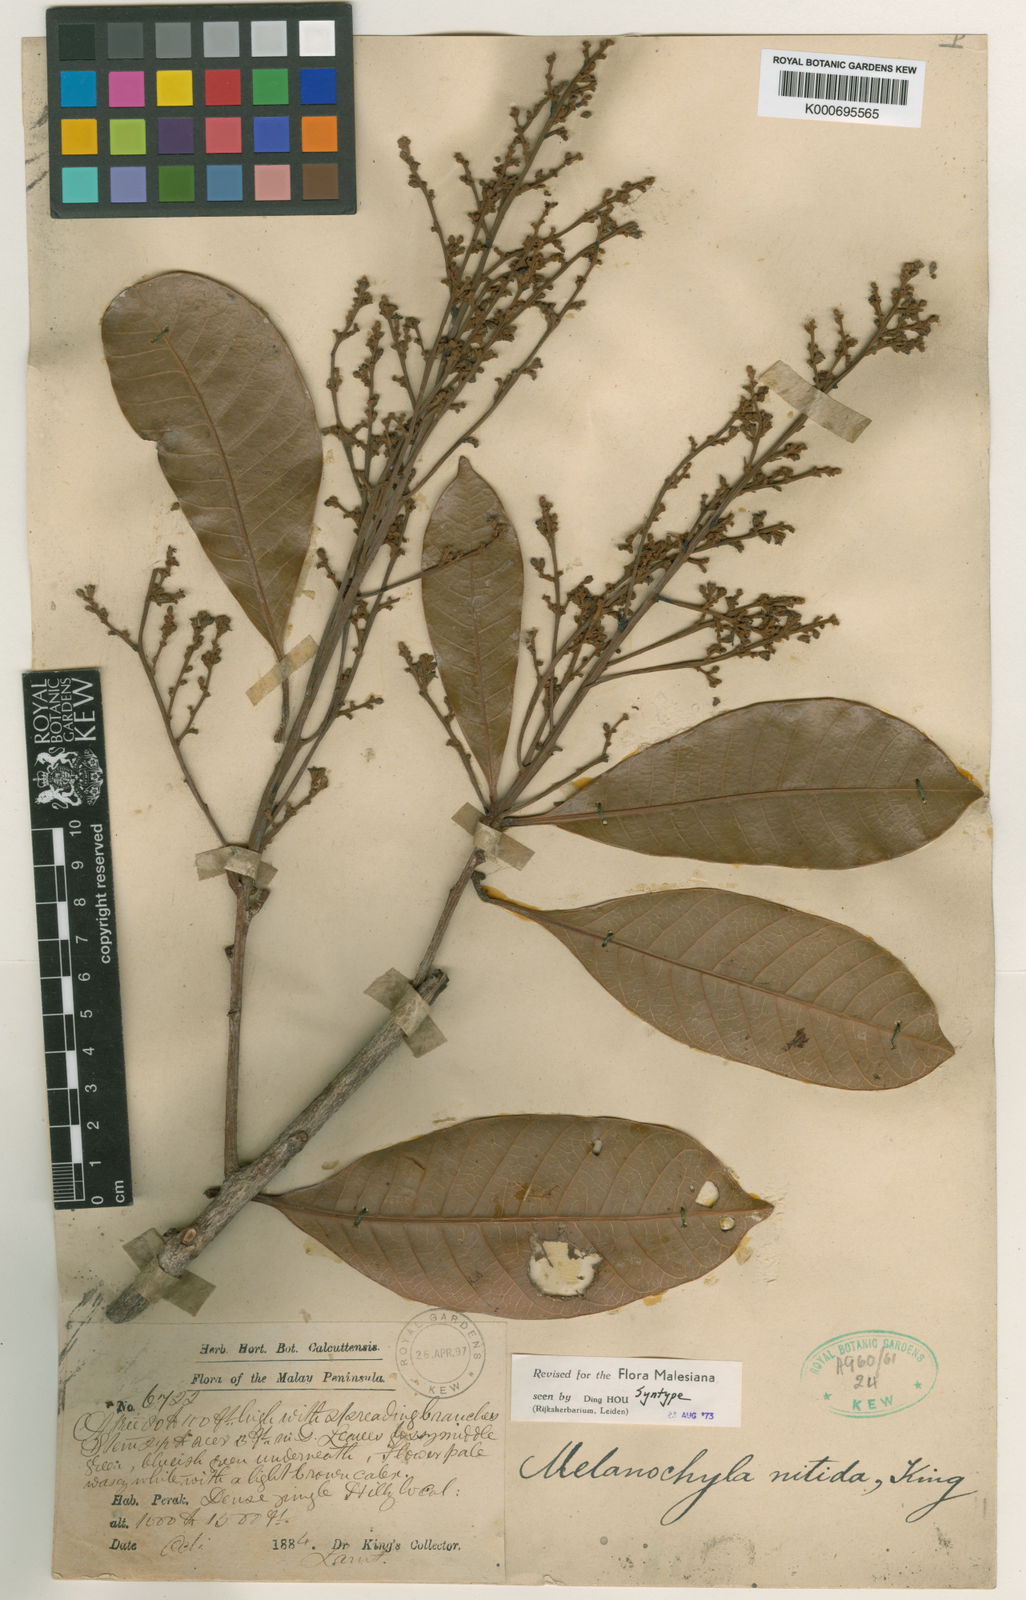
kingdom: Plantae
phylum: Tracheophyta
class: Magnoliopsida
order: Sapindales
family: Anacardiaceae
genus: Melanochyla
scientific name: Melanochyla nitida
